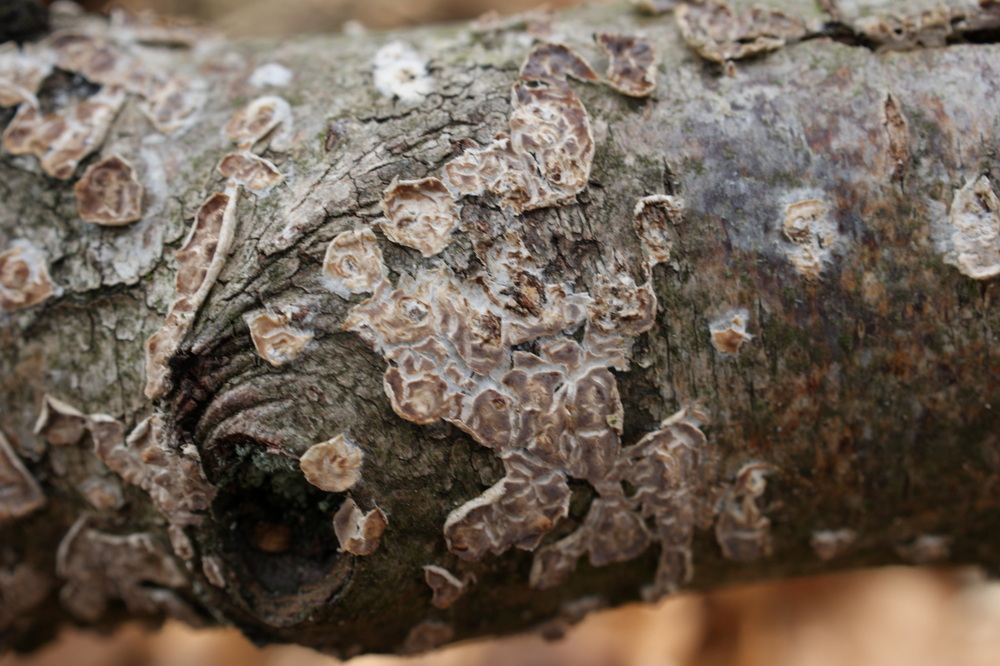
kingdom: Fungi
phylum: Basidiomycota
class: Agaricomycetes
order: Agaricales
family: Physalacriaceae
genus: Cylindrobasidium
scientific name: Cylindrobasidium evolvens
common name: sprækkehinde
